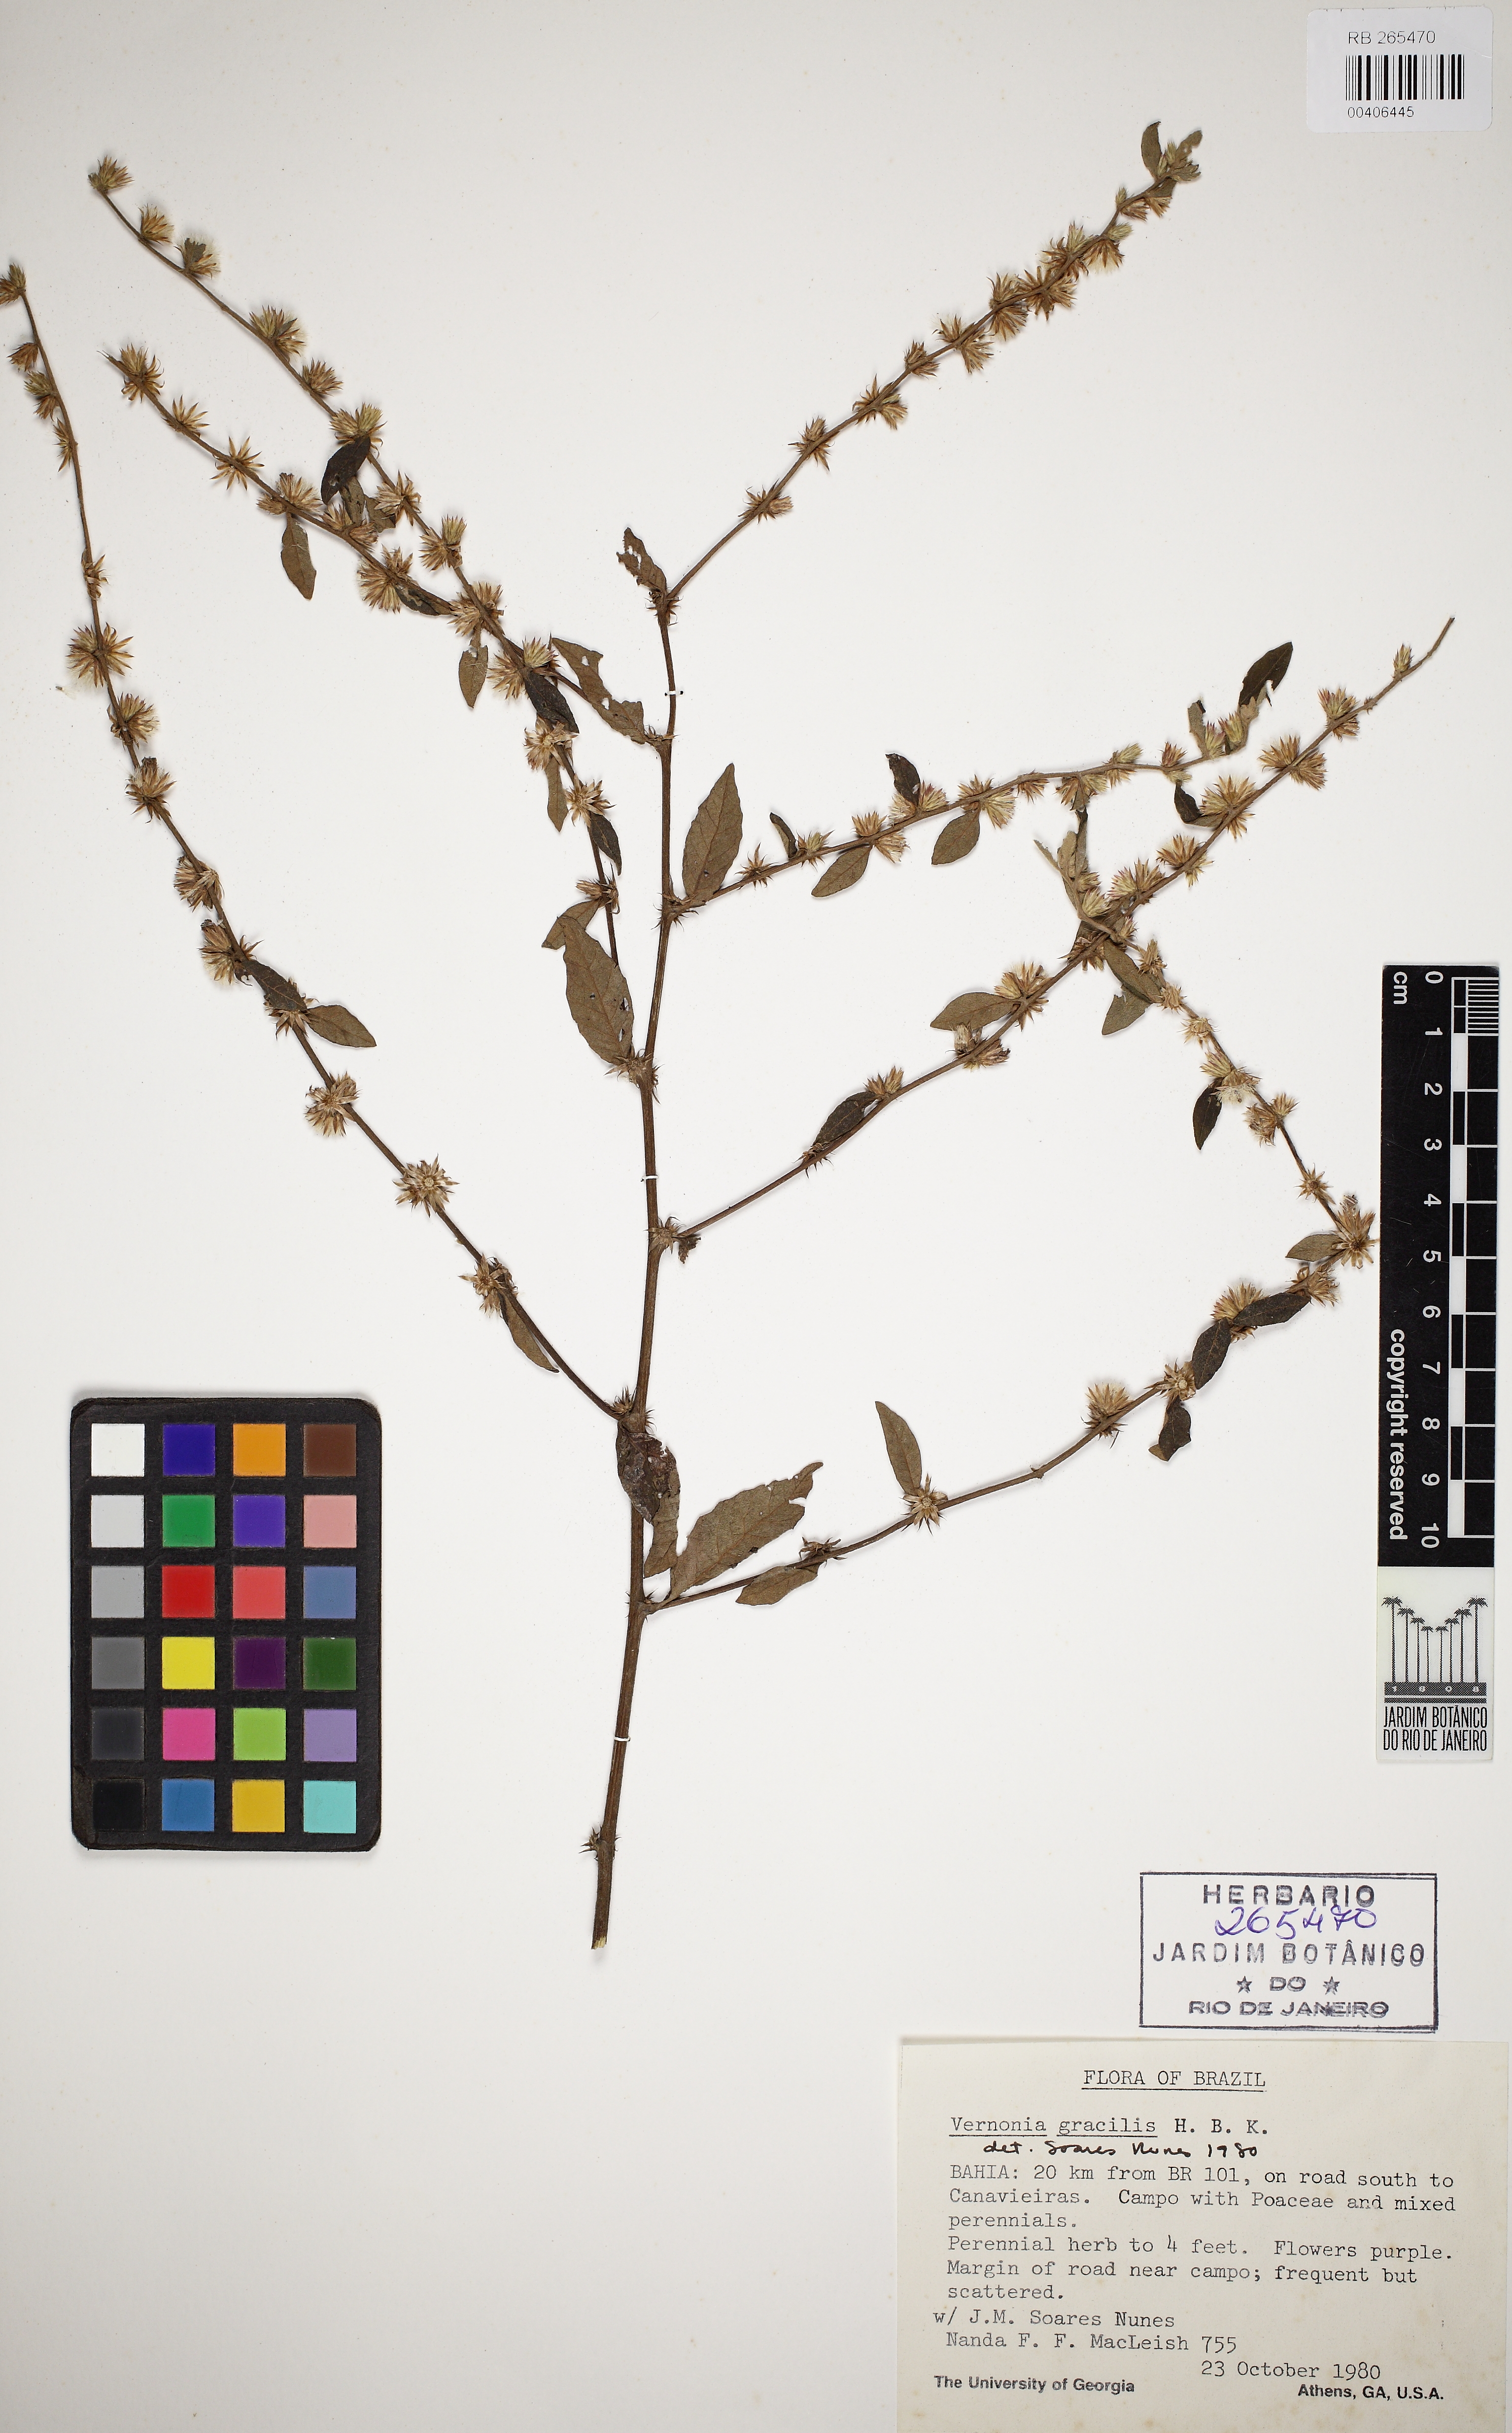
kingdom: Plantae
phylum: Tracheophyta
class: Magnoliopsida
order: Asterales
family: Asteraceae
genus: Lepidaploa
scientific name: Lepidaploa gracilis
